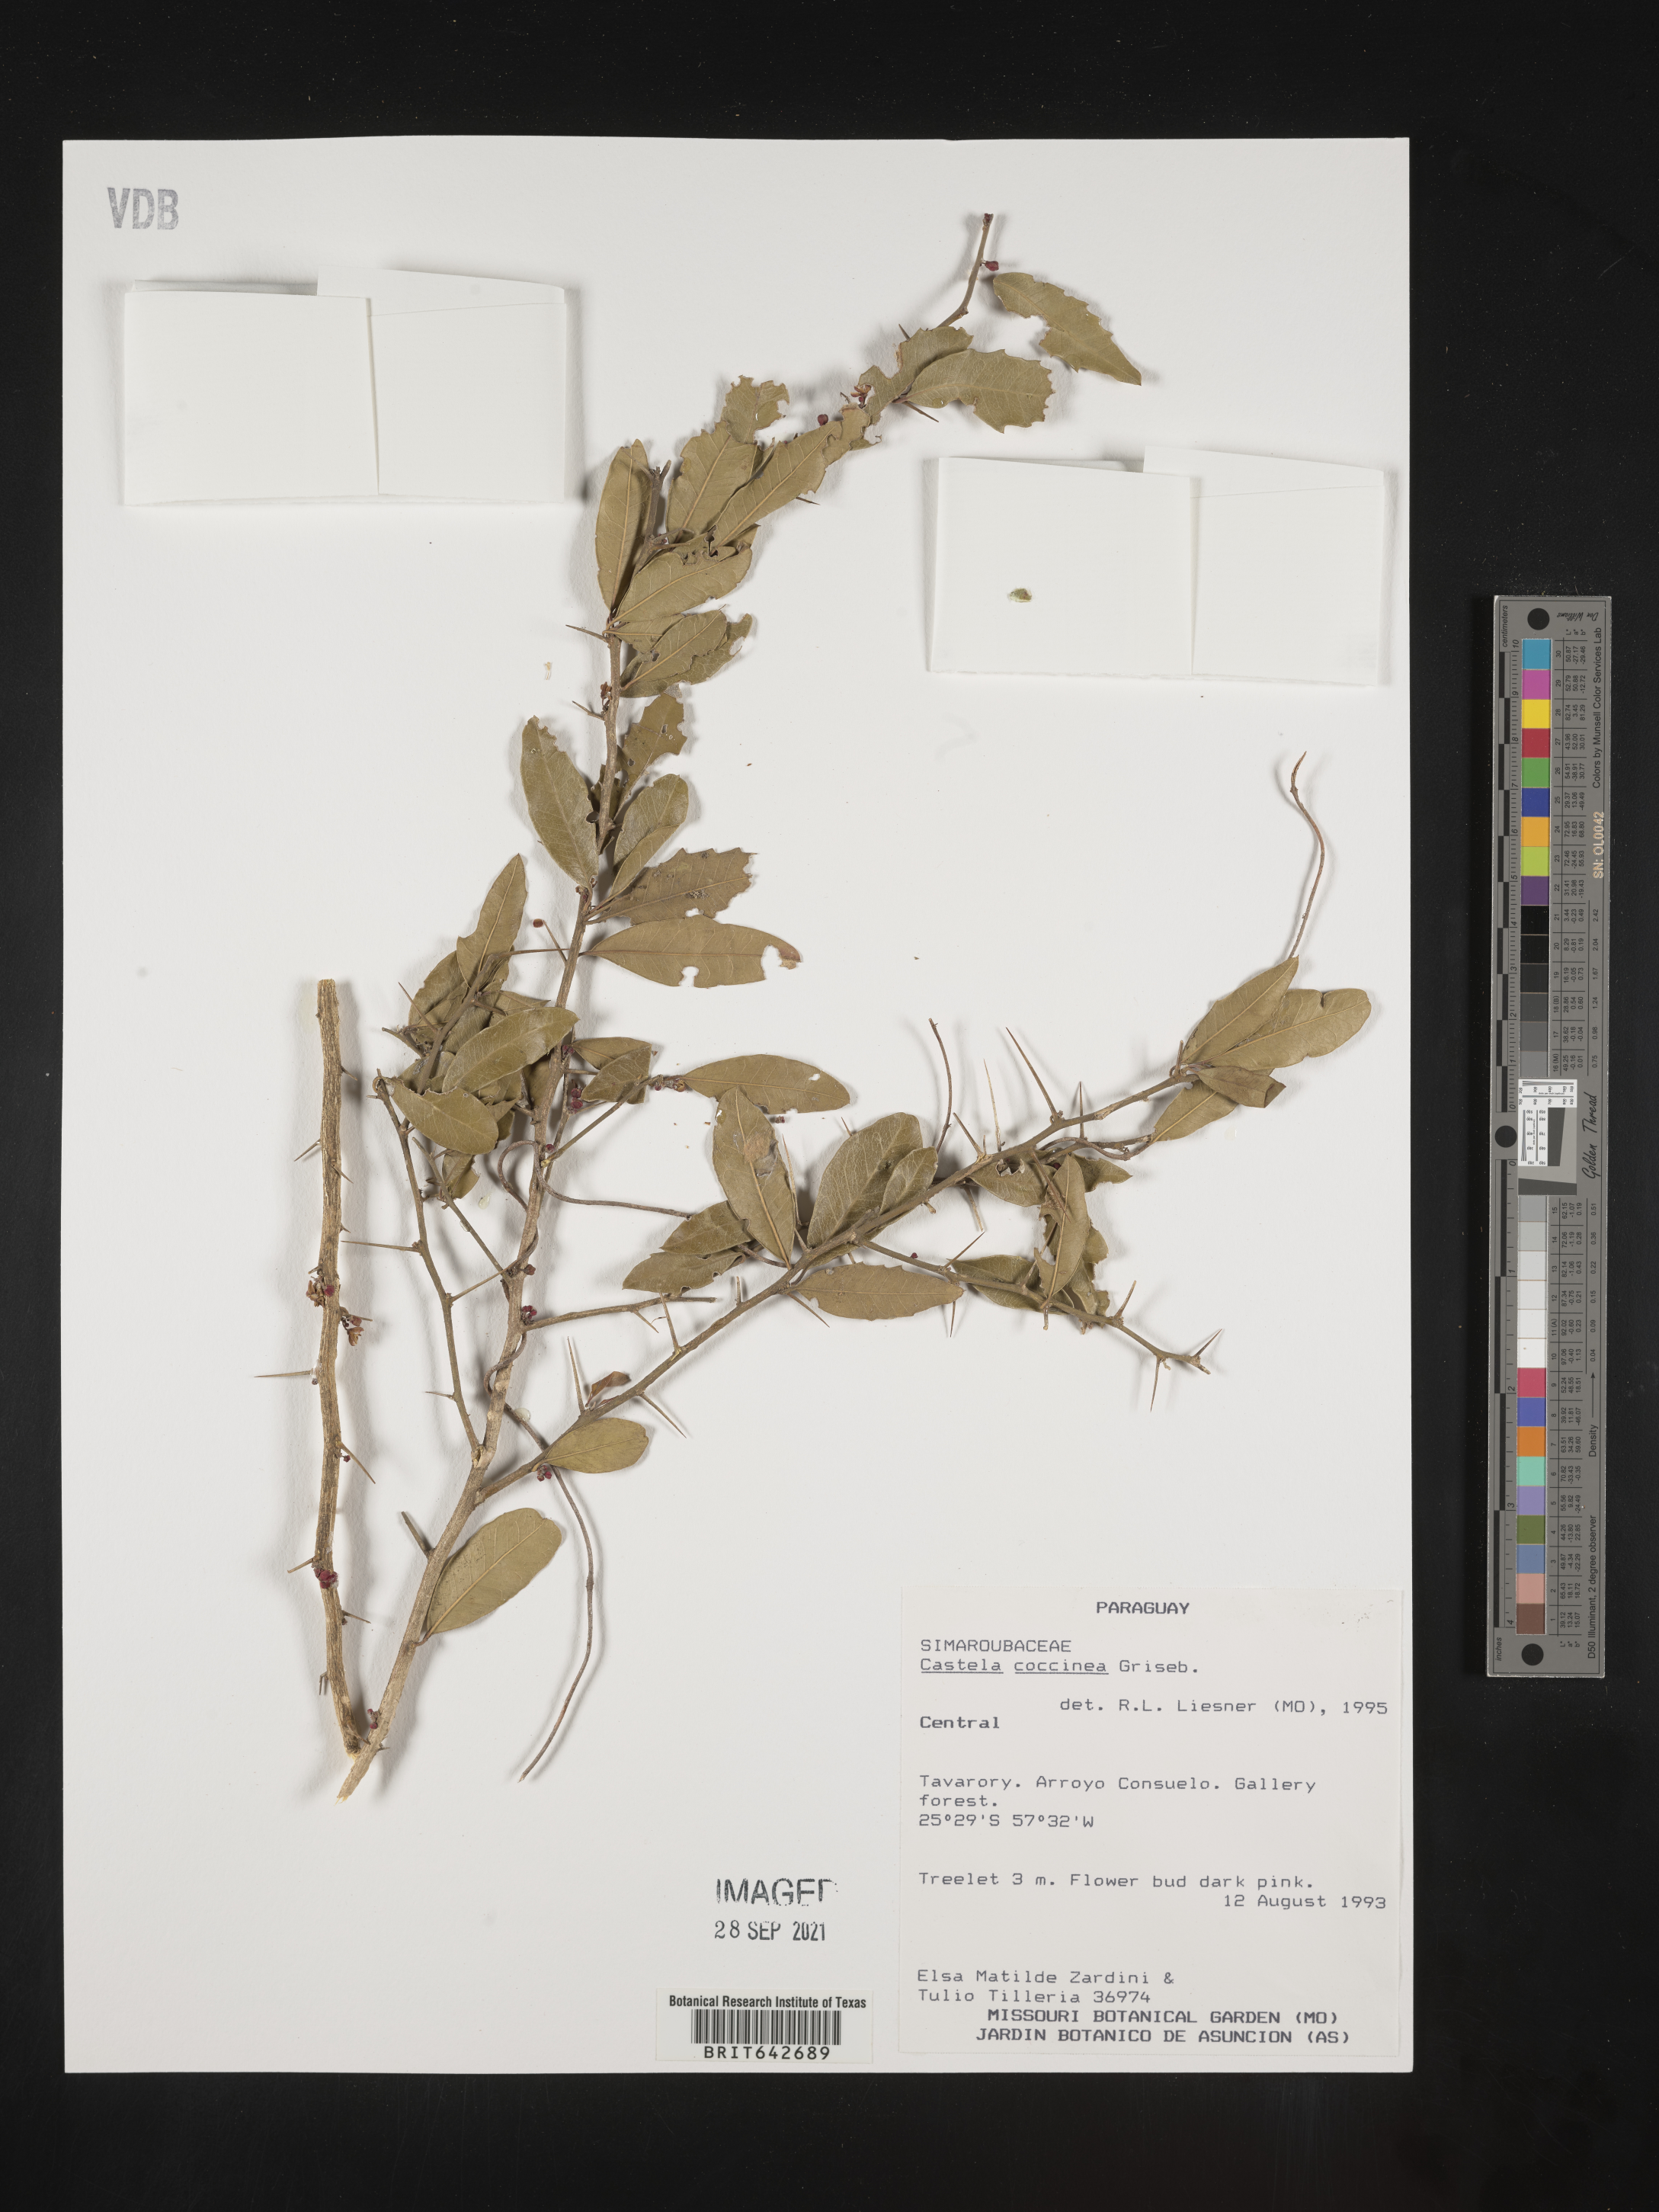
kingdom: Plantae
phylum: Tracheophyta
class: Magnoliopsida
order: Sapindales
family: Simaroubaceae
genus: Castela
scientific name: Castela
